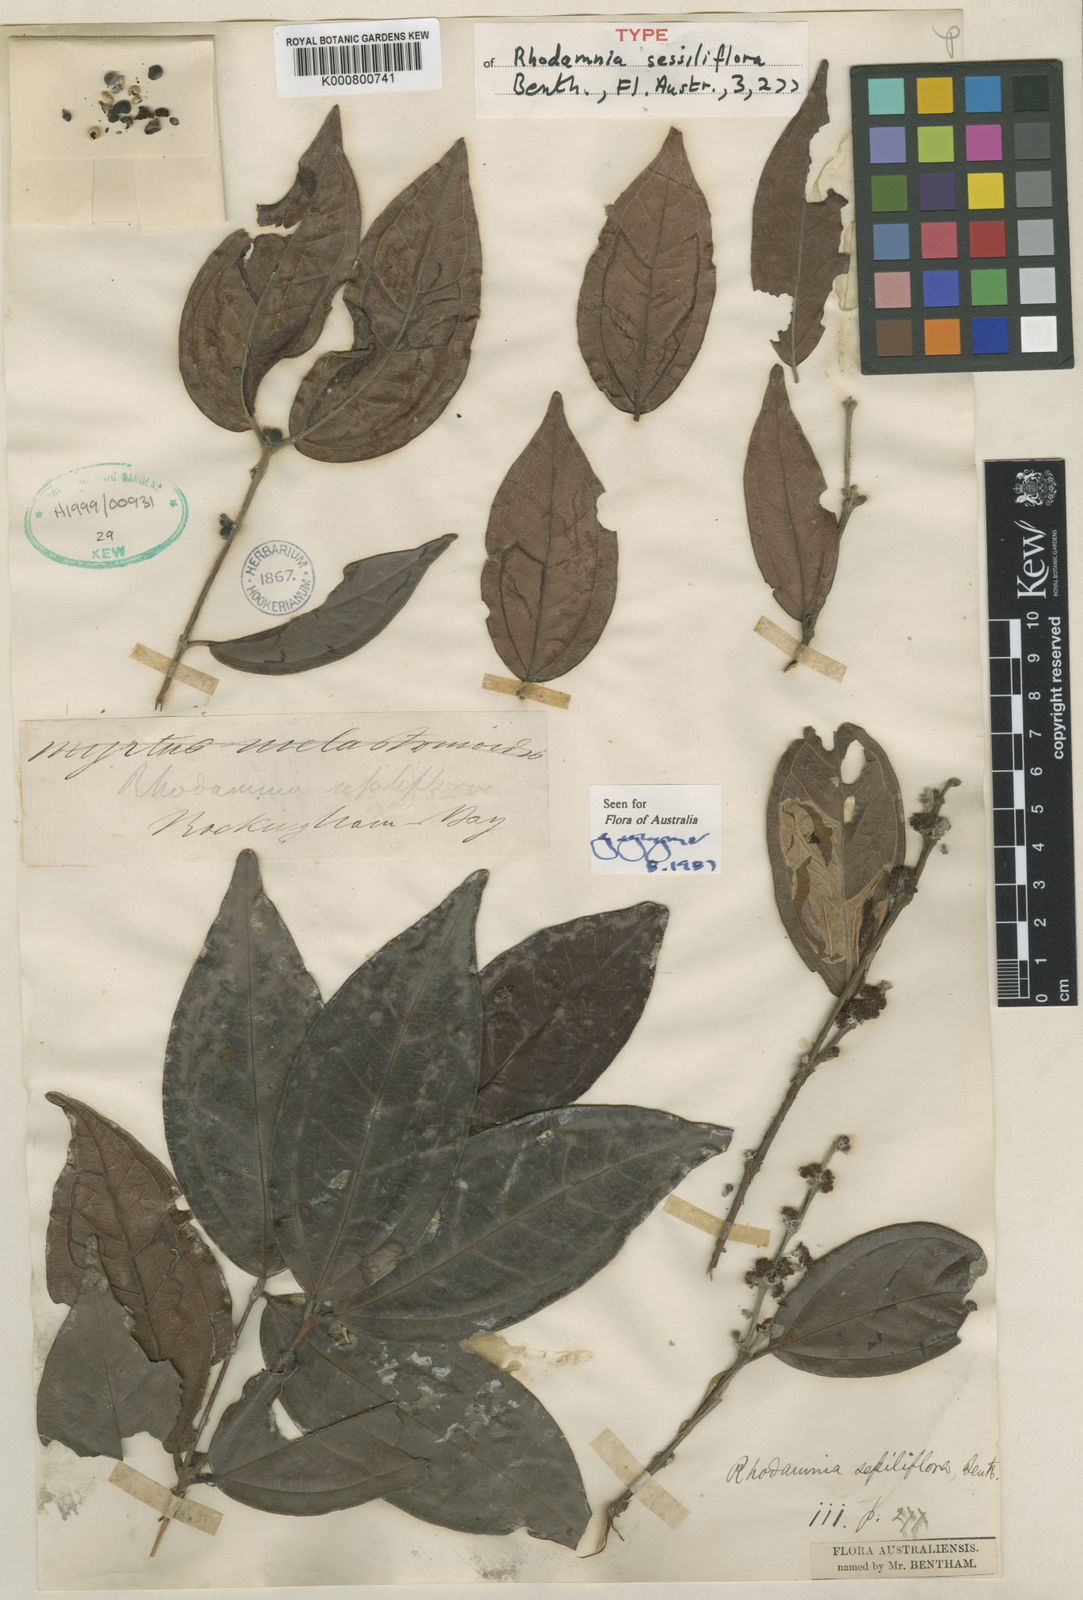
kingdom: Plantae
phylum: Tracheophyta
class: Magnoliopsida
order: Myrtales
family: Myrtaceae
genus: Rhodamnia
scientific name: Rhodamnia sessiliflora
